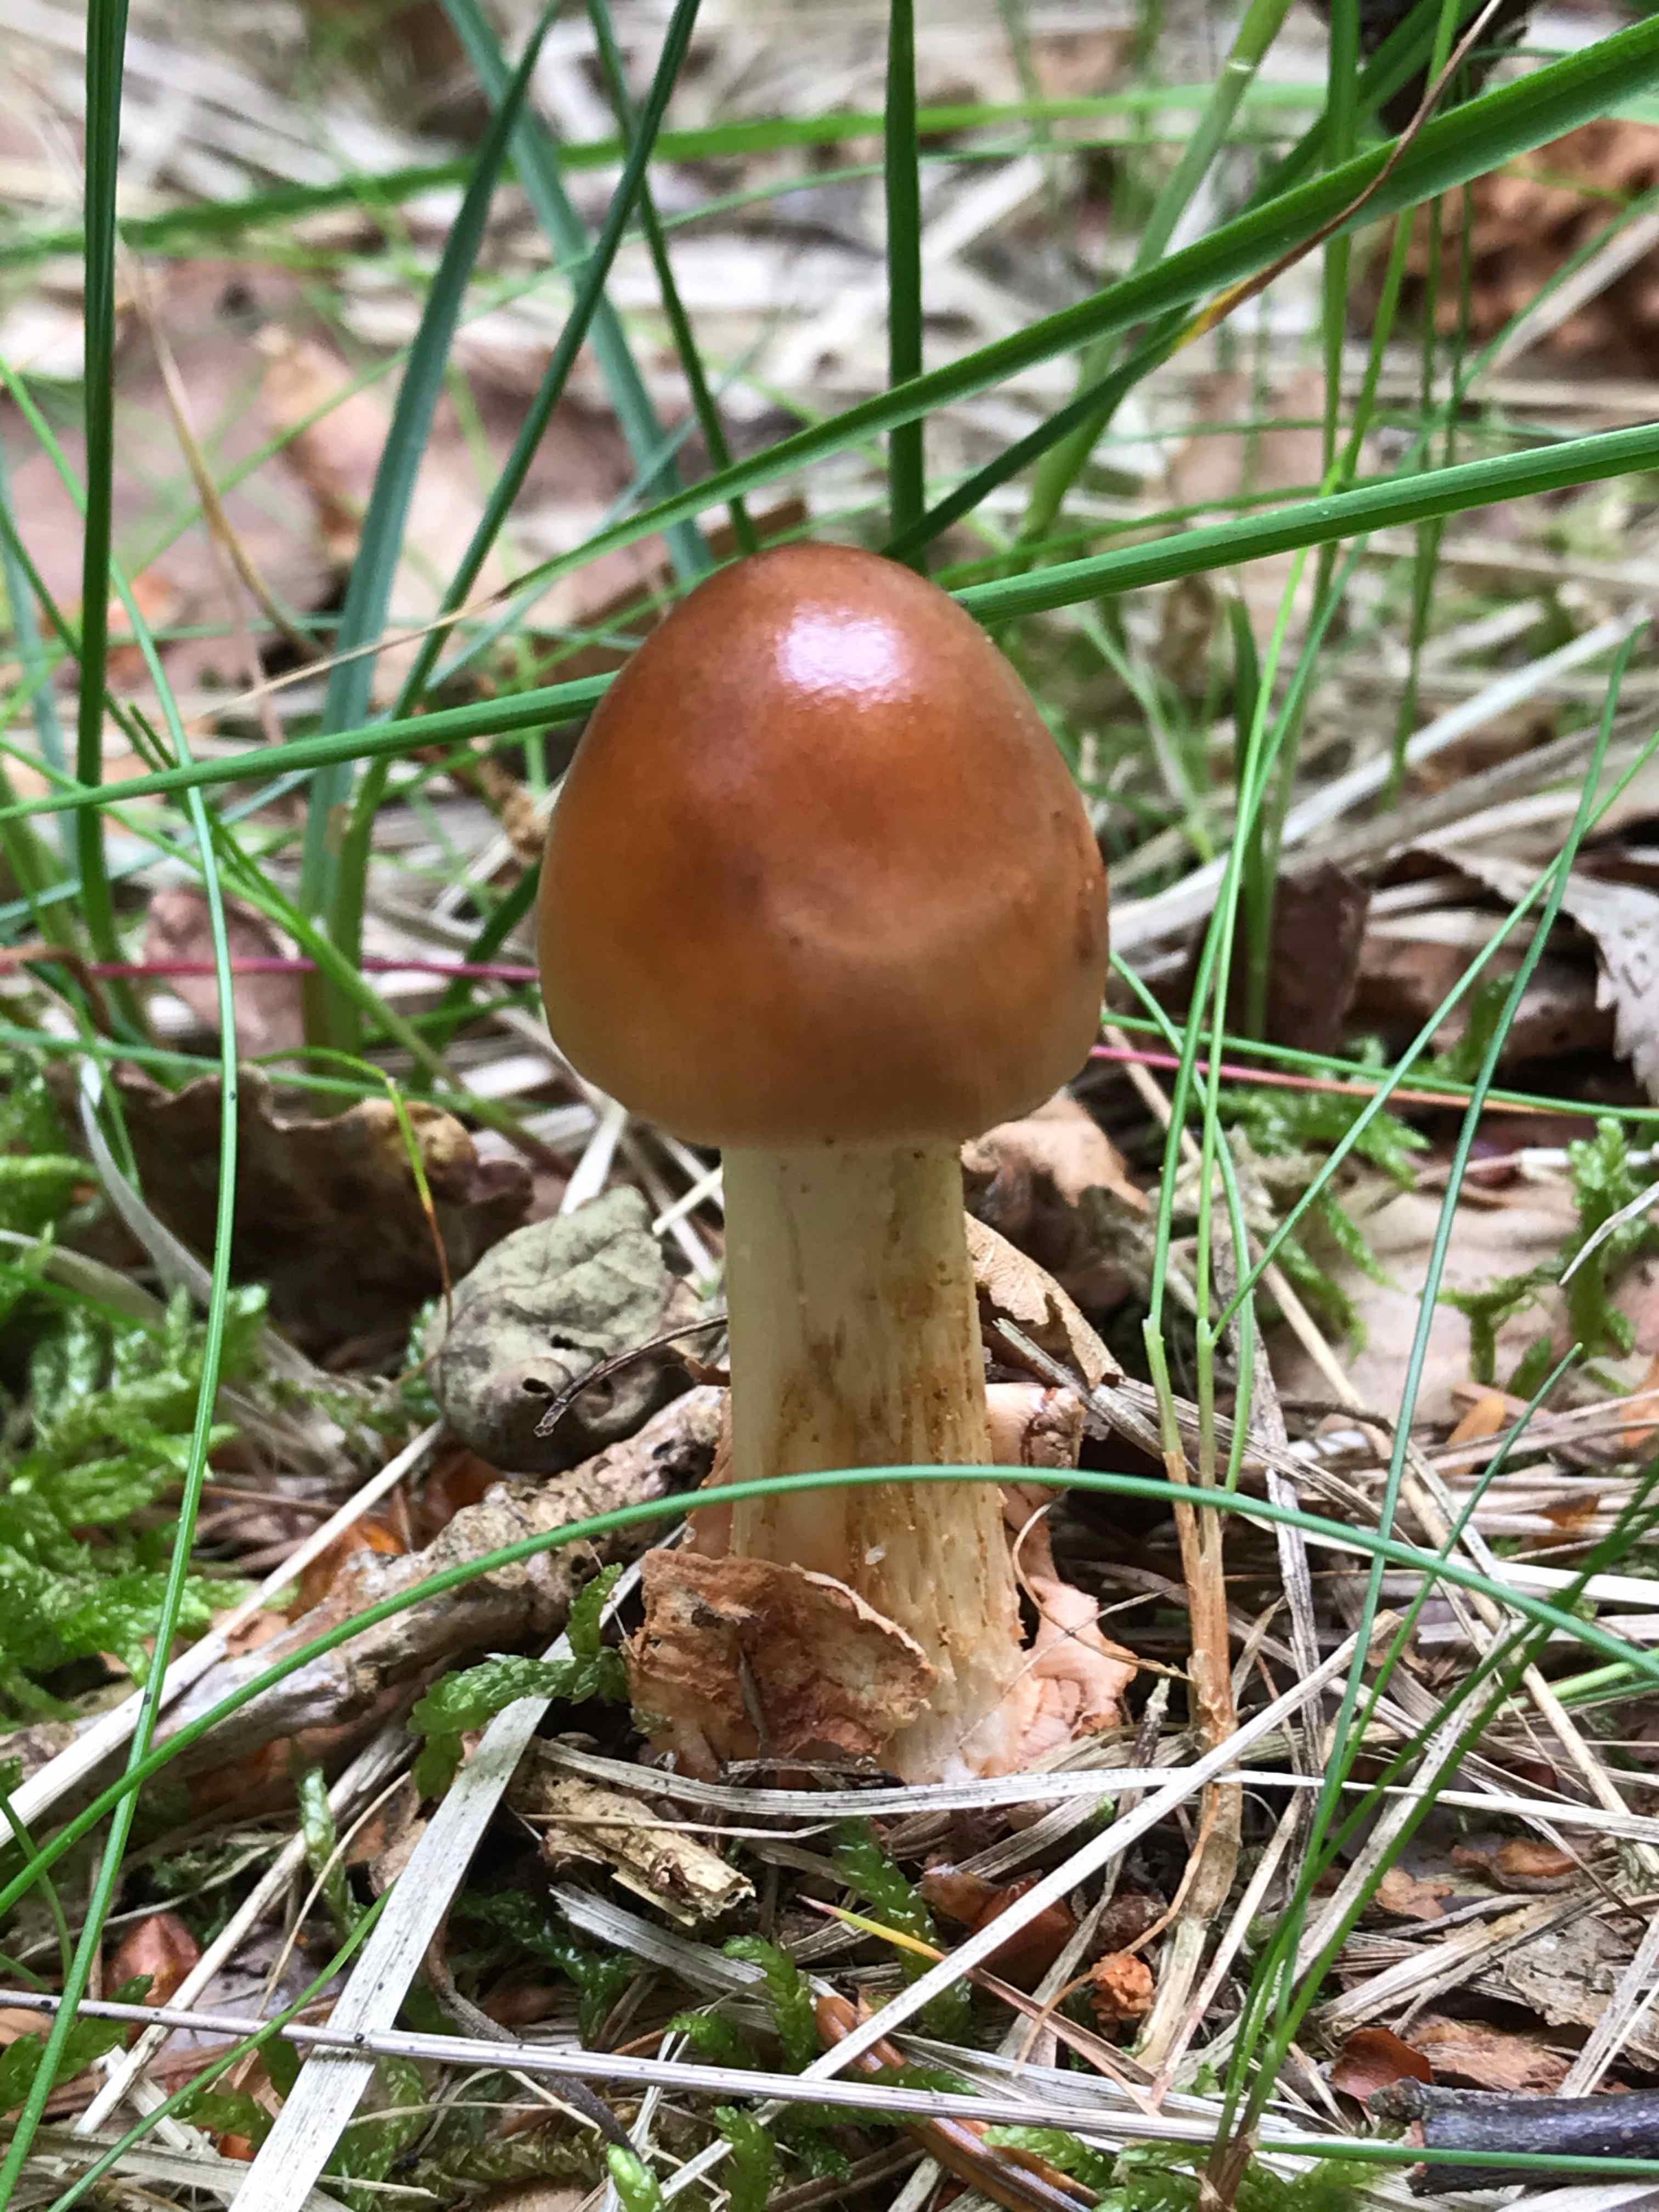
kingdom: Fungi
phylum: Basidiomycota
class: Agaricomycetes
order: Agaricales
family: Amanitaceae
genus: Amanita
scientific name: Amanita fulva
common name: brun kam-fluesvamp
